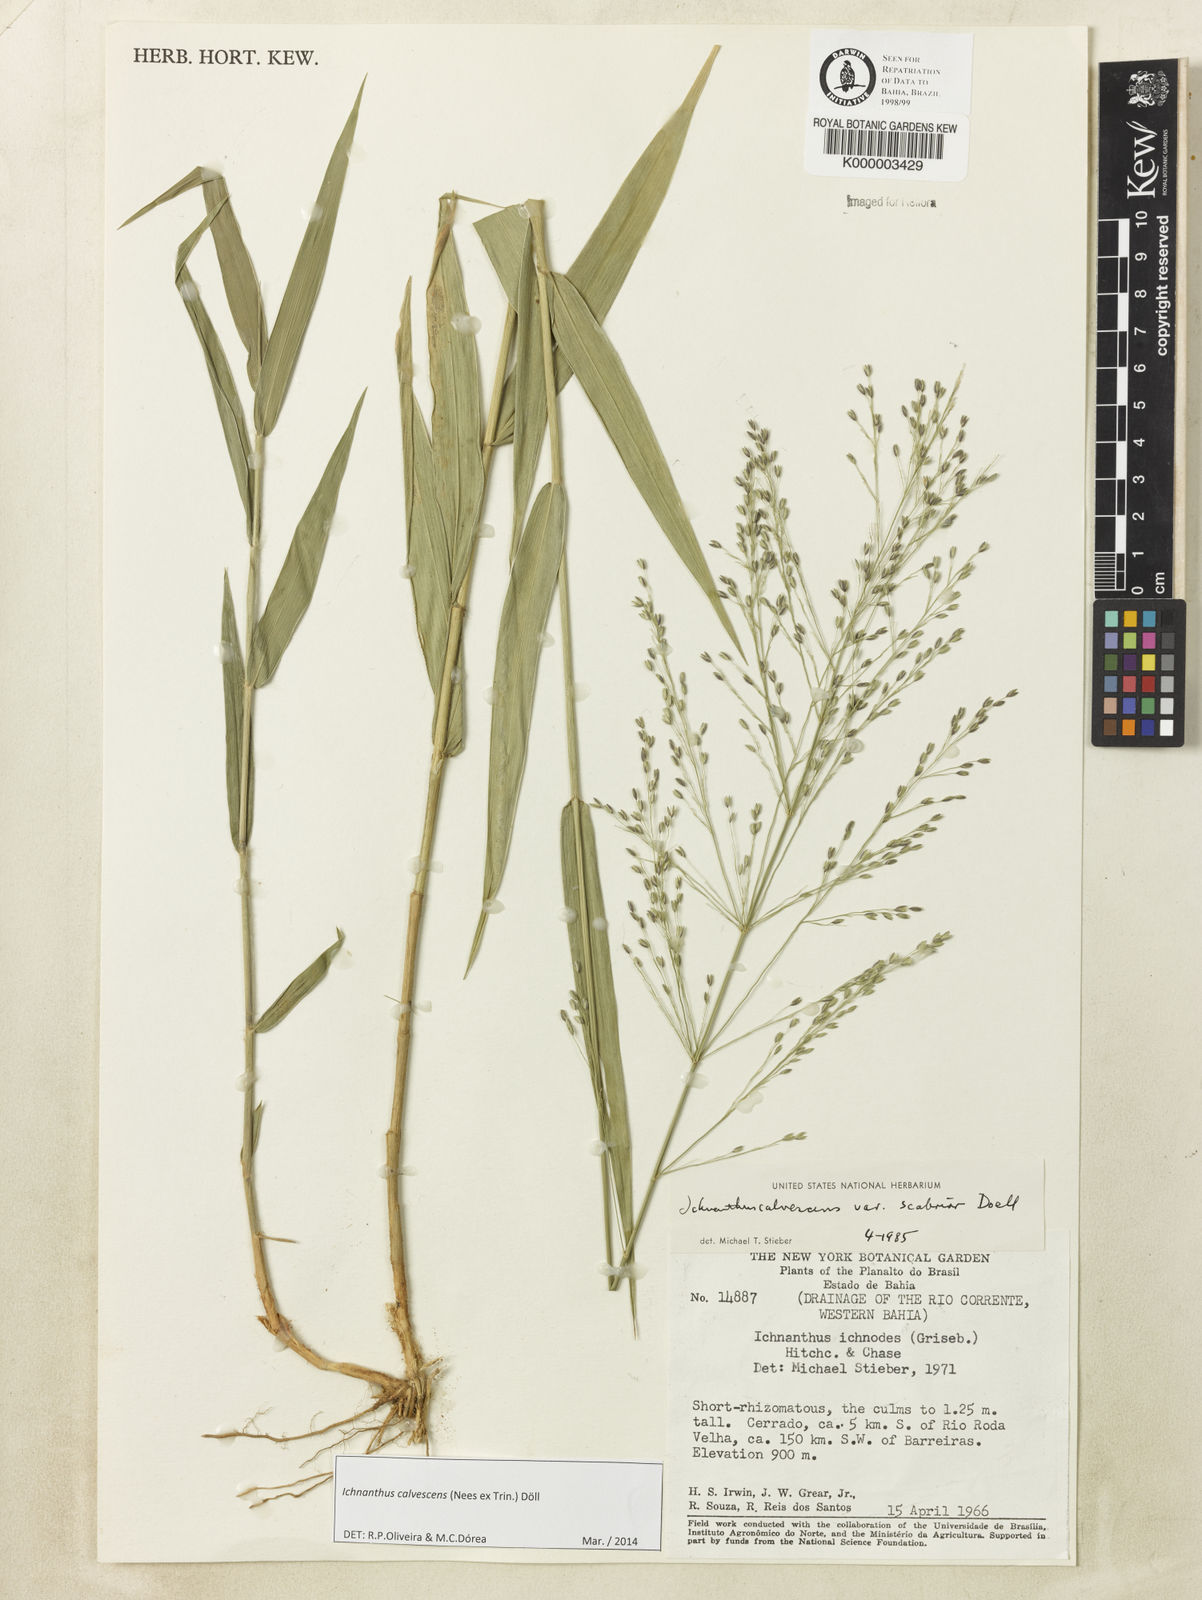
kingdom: Plantae
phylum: Tracheophyta
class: Liliopsida
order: Poales
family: Poaceae
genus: Ichnanthus
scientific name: Ichnanthus
